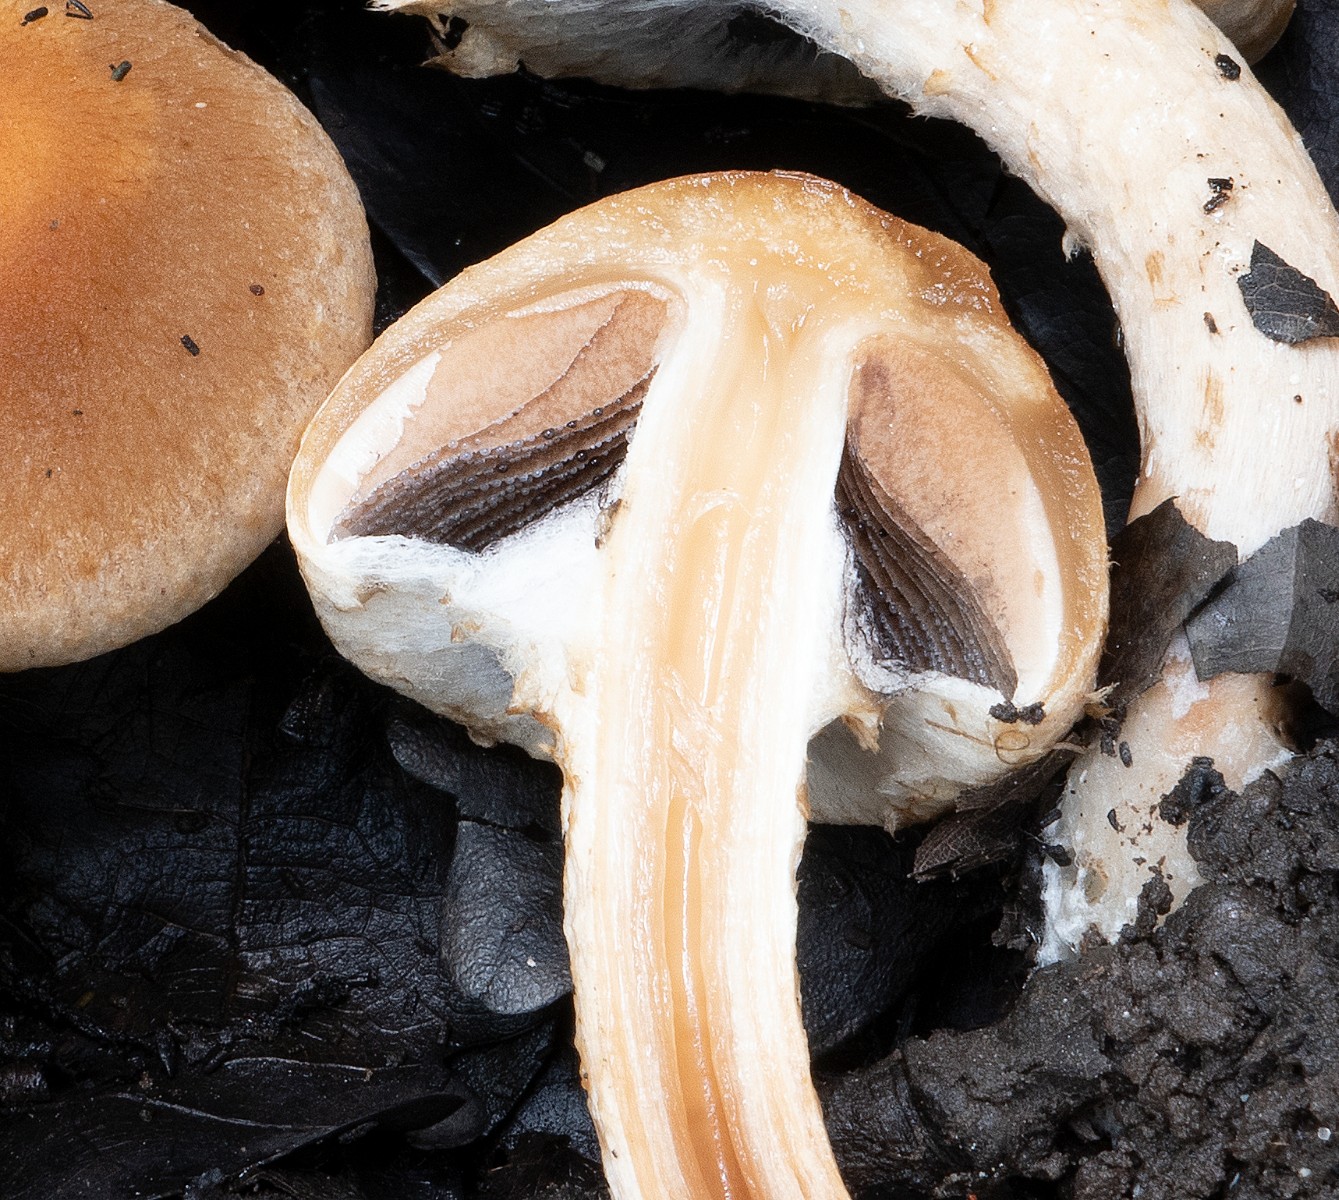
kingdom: Fungi
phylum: Basidiomycota
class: Agaricomycetes
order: Agaricales
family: Psathyrellaceae
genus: Lacrymaria
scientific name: Lacrymaria lacrymabunda
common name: grædende mørkhat
